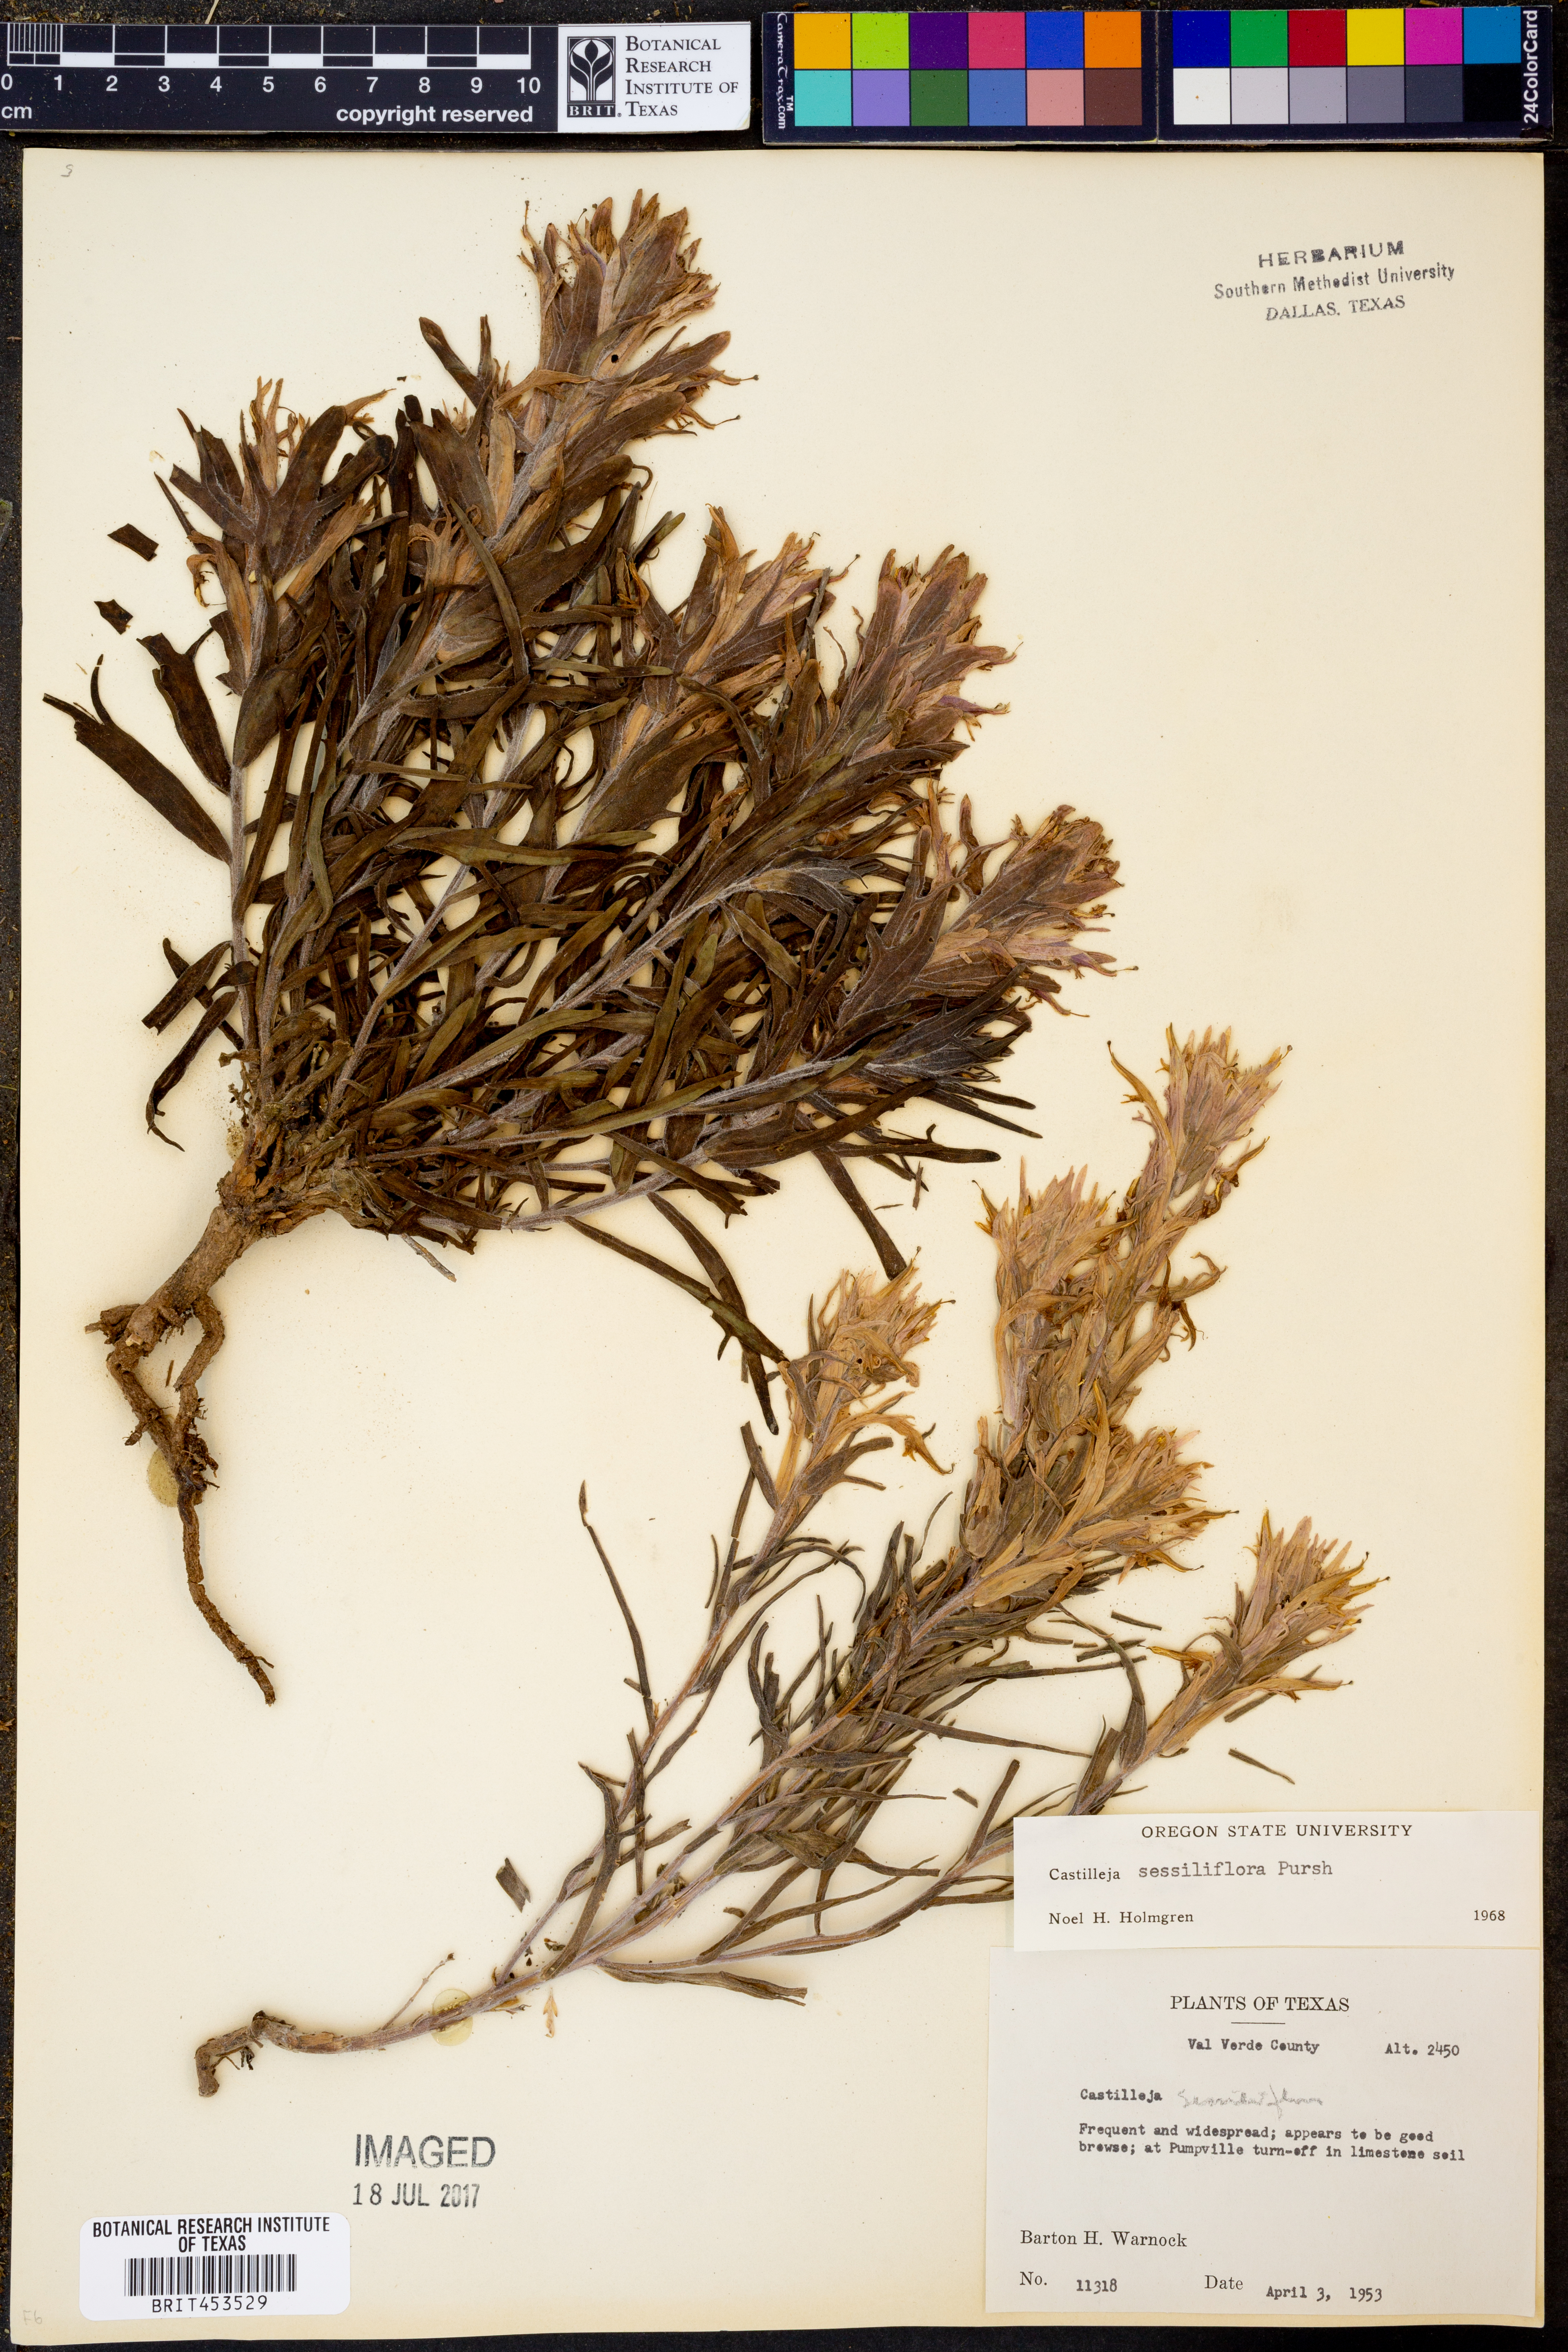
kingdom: Plantae
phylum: Tracheophyta
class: Magnoliopsida
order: Lamiales
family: Orobanchaceae
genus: Castilleja
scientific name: Castilleja sessiliflora
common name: Downy paintbrush
